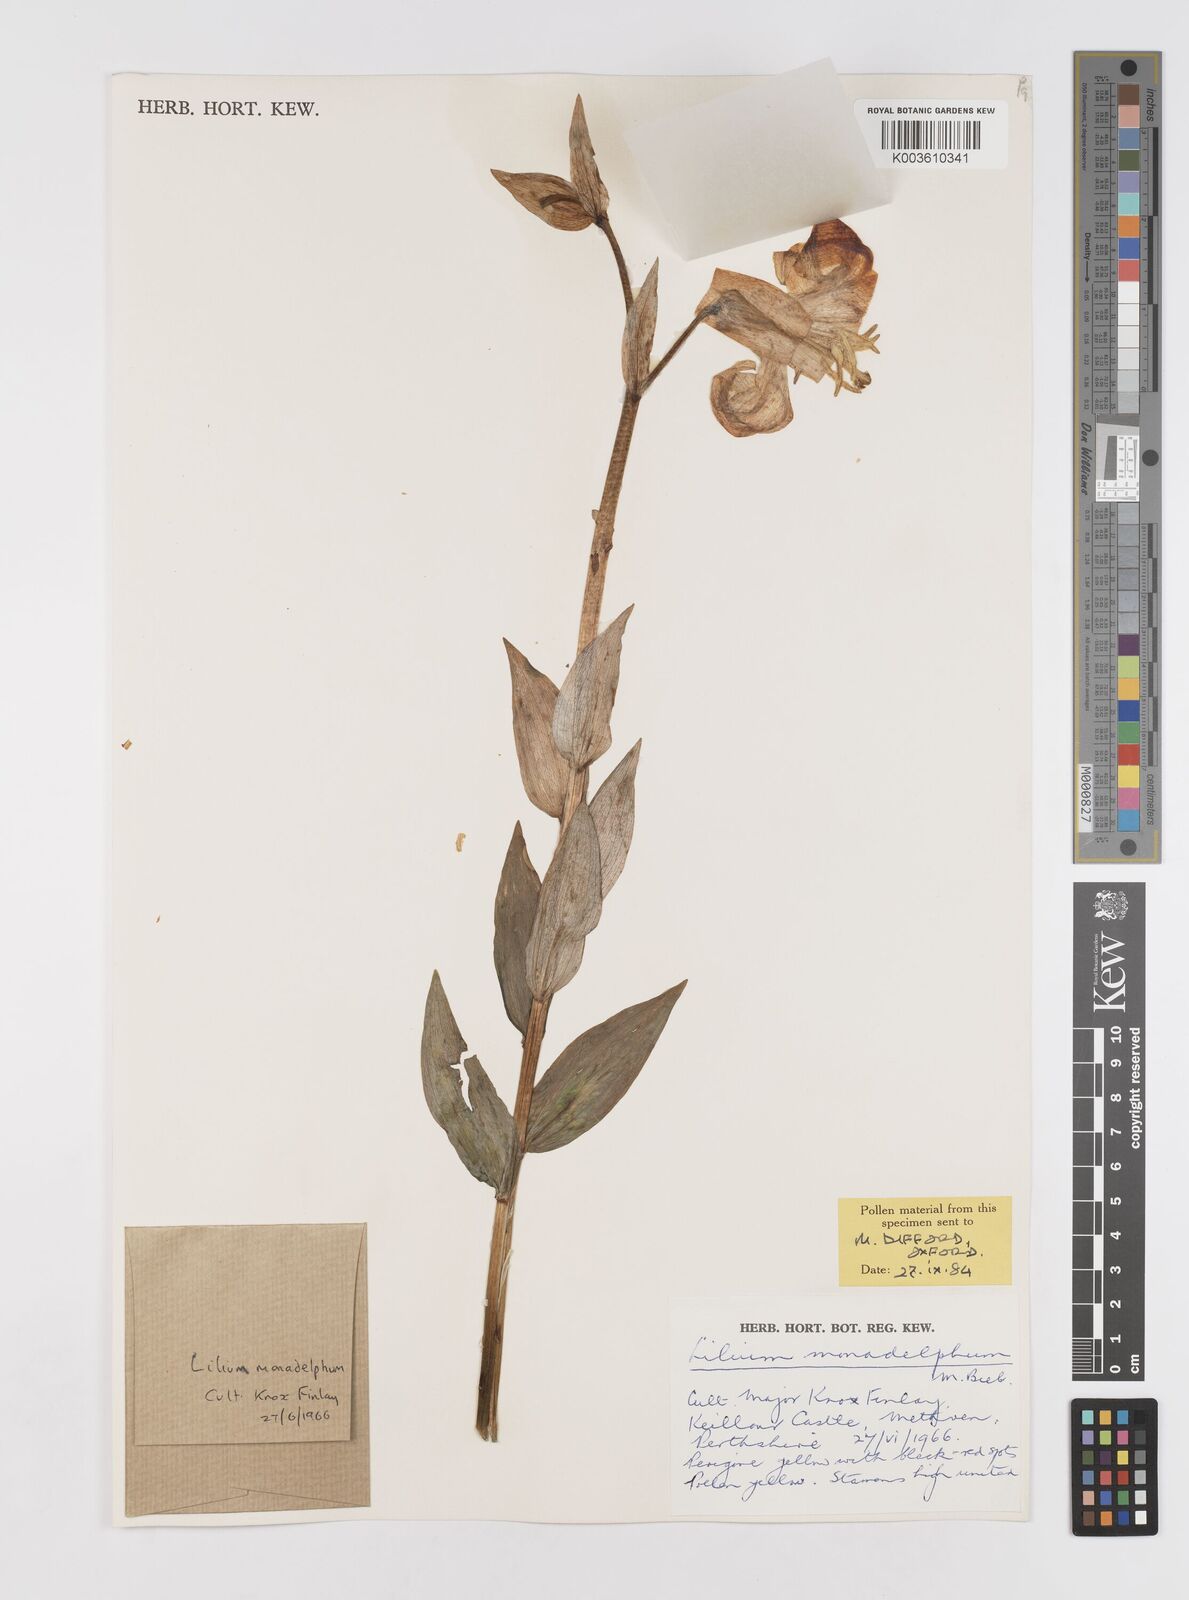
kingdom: Plantae
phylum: Tracheophyta
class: Liliopsida
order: Liliales
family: Liliaceae
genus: Lilium
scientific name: Lilium monadelphum
